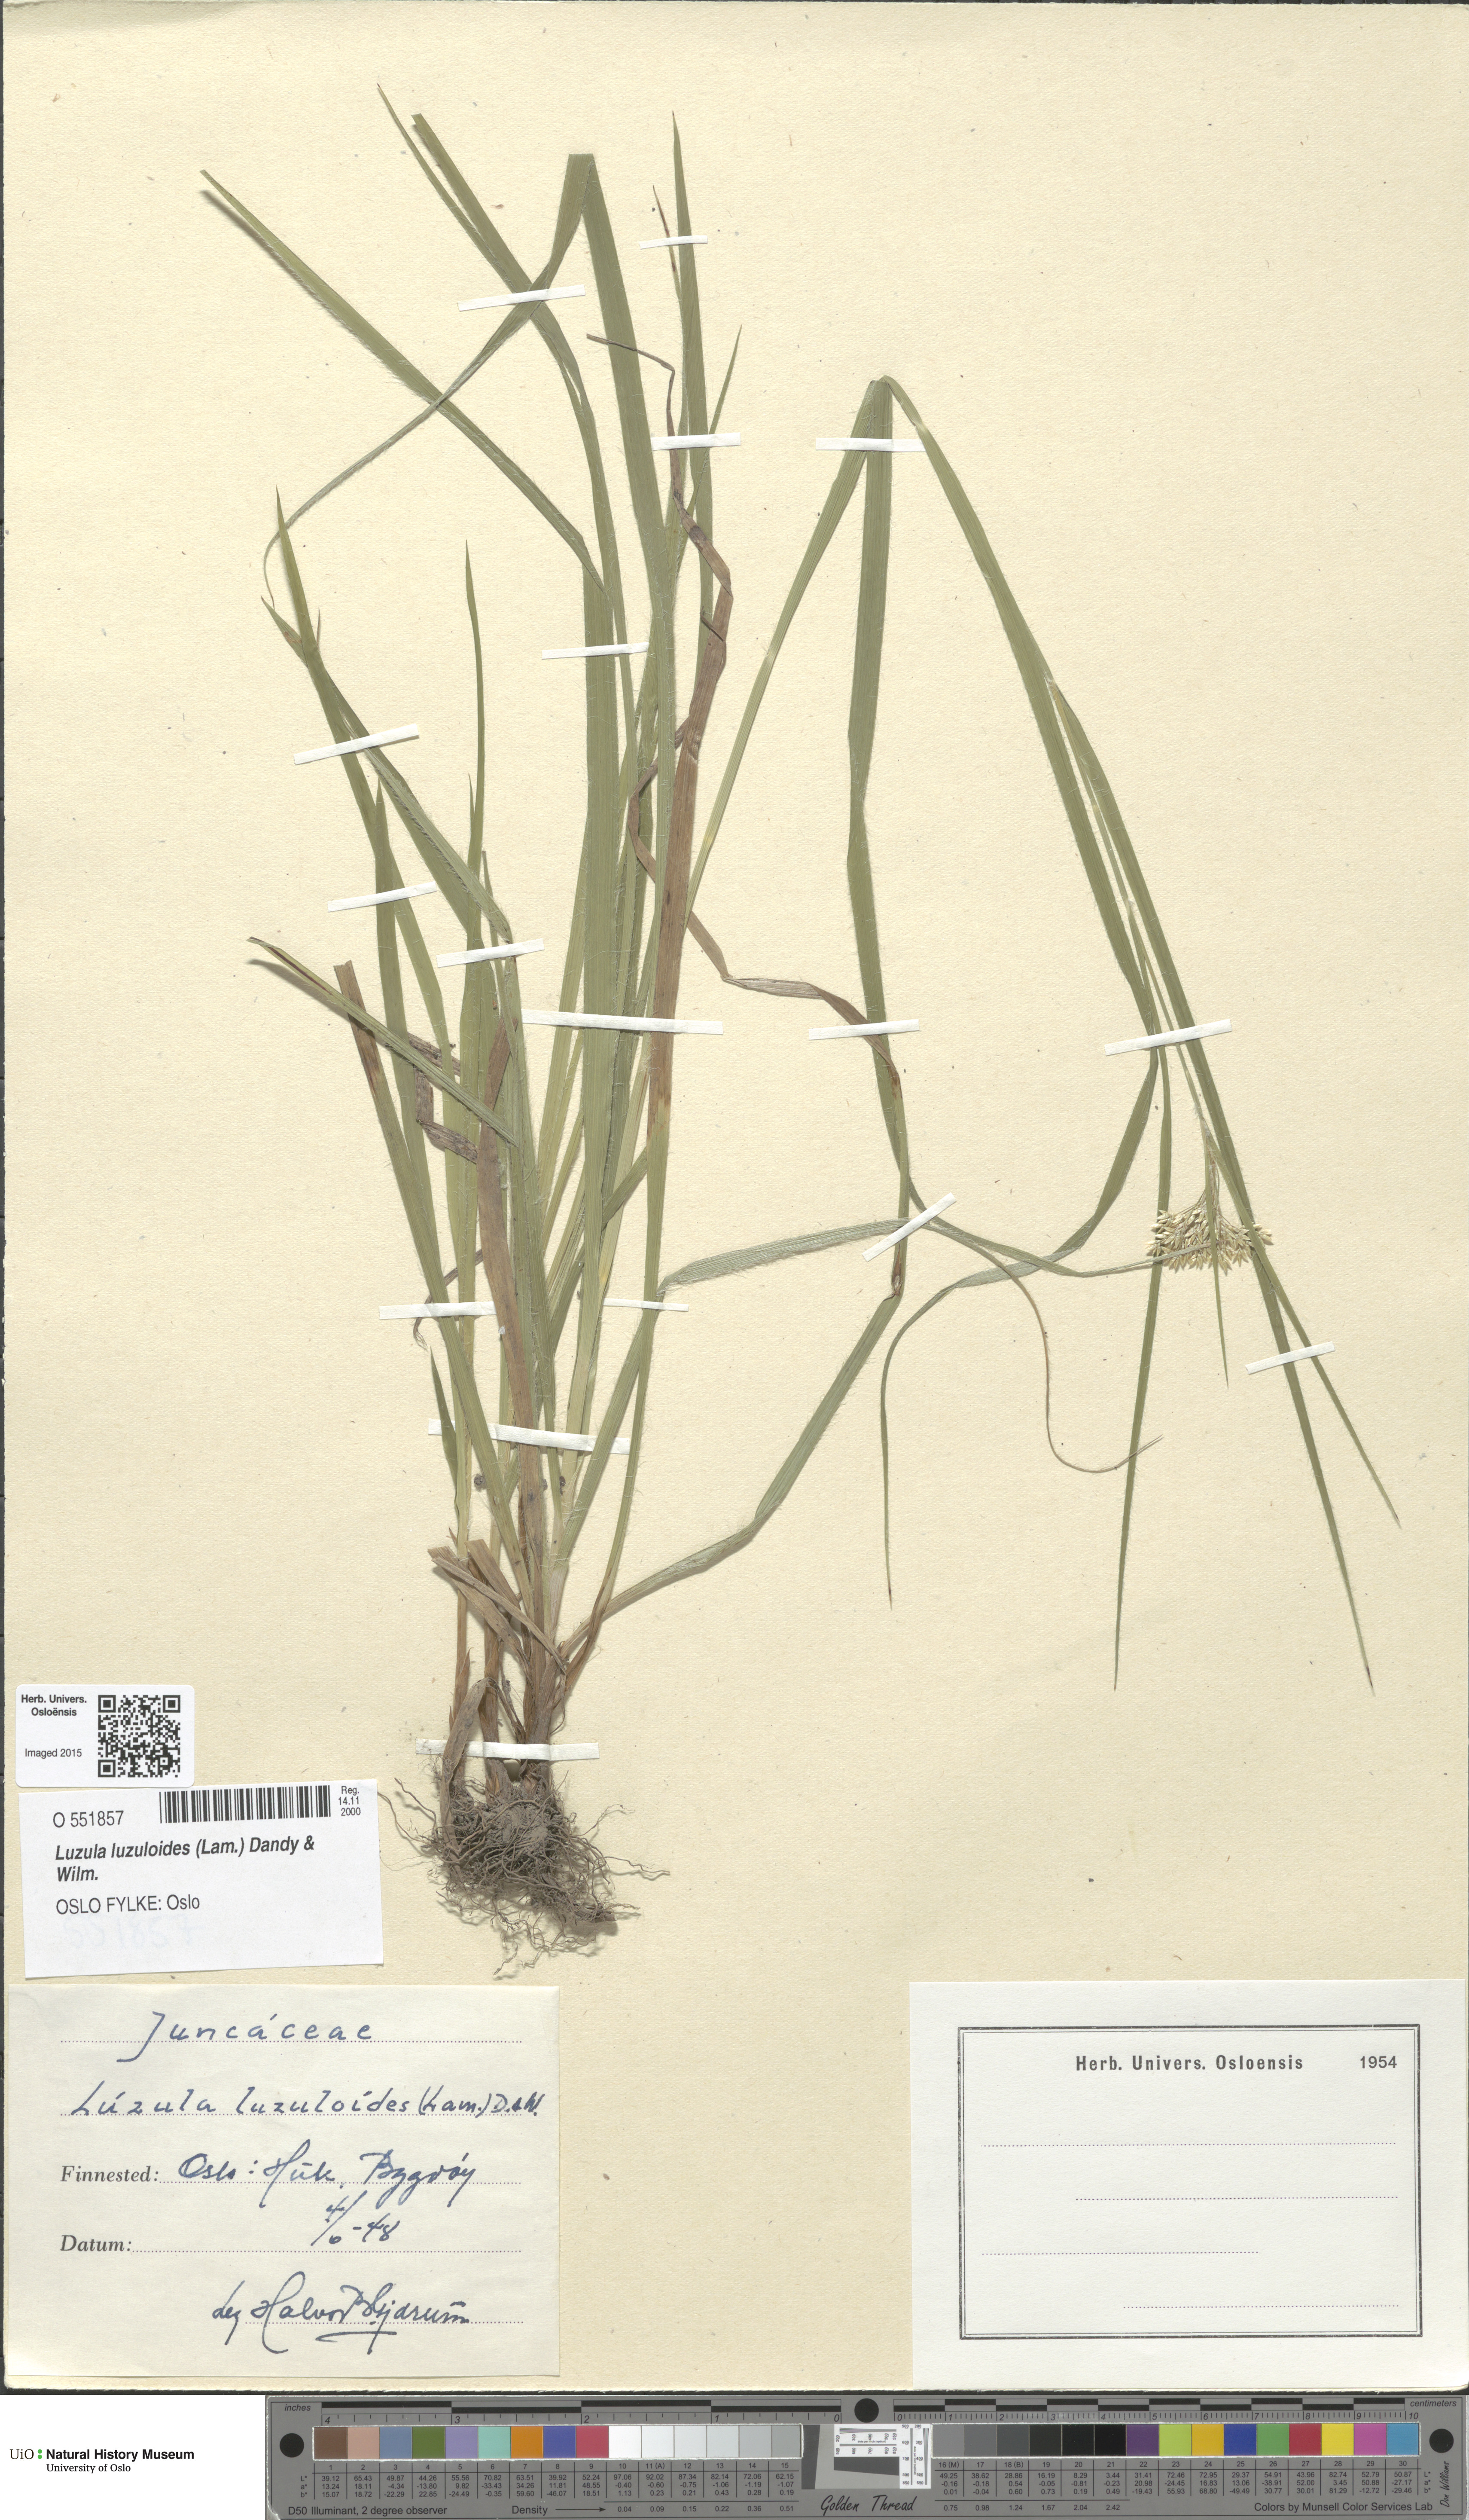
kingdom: Plantae
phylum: Tracheophyta
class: Liliopsida
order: Poales
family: Juncaceae
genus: Luzula
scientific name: Luzula luzuloides
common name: White wood-rush
